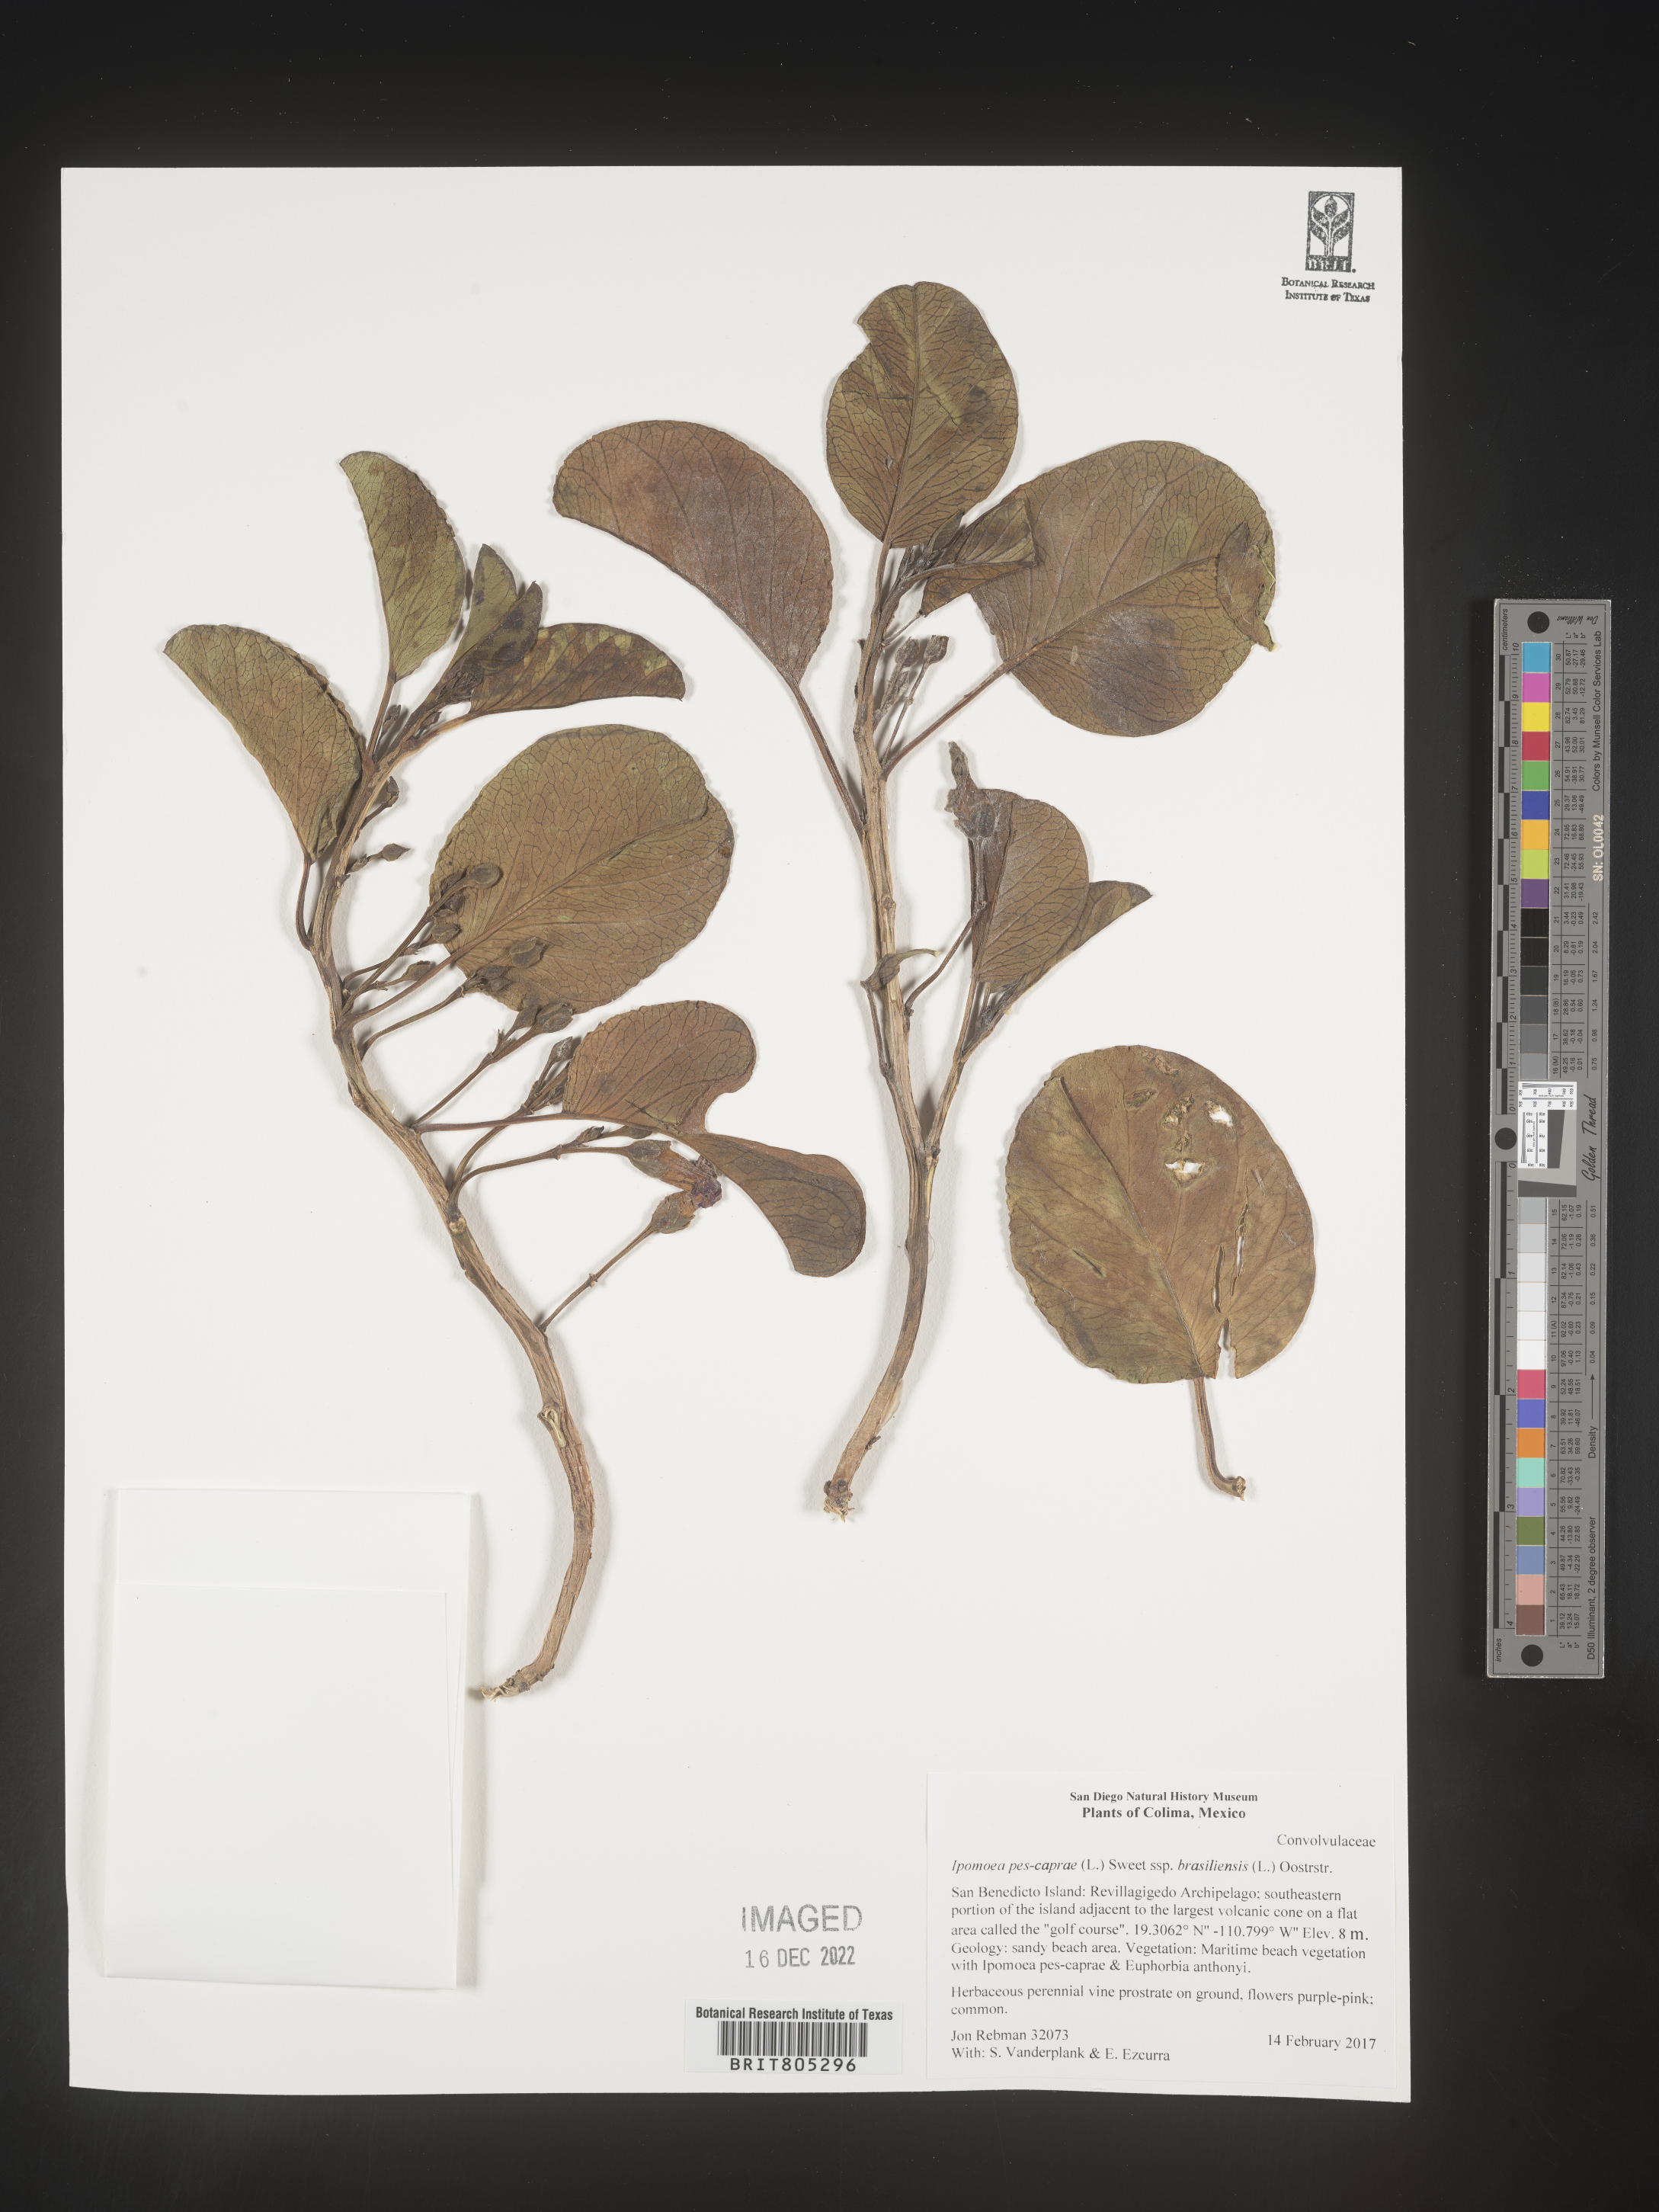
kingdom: Plantae
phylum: Tracheophyta
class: Magnoliopsida
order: Solanales
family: Convolvulaceae
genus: Ipomoea
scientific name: Ipomoea
